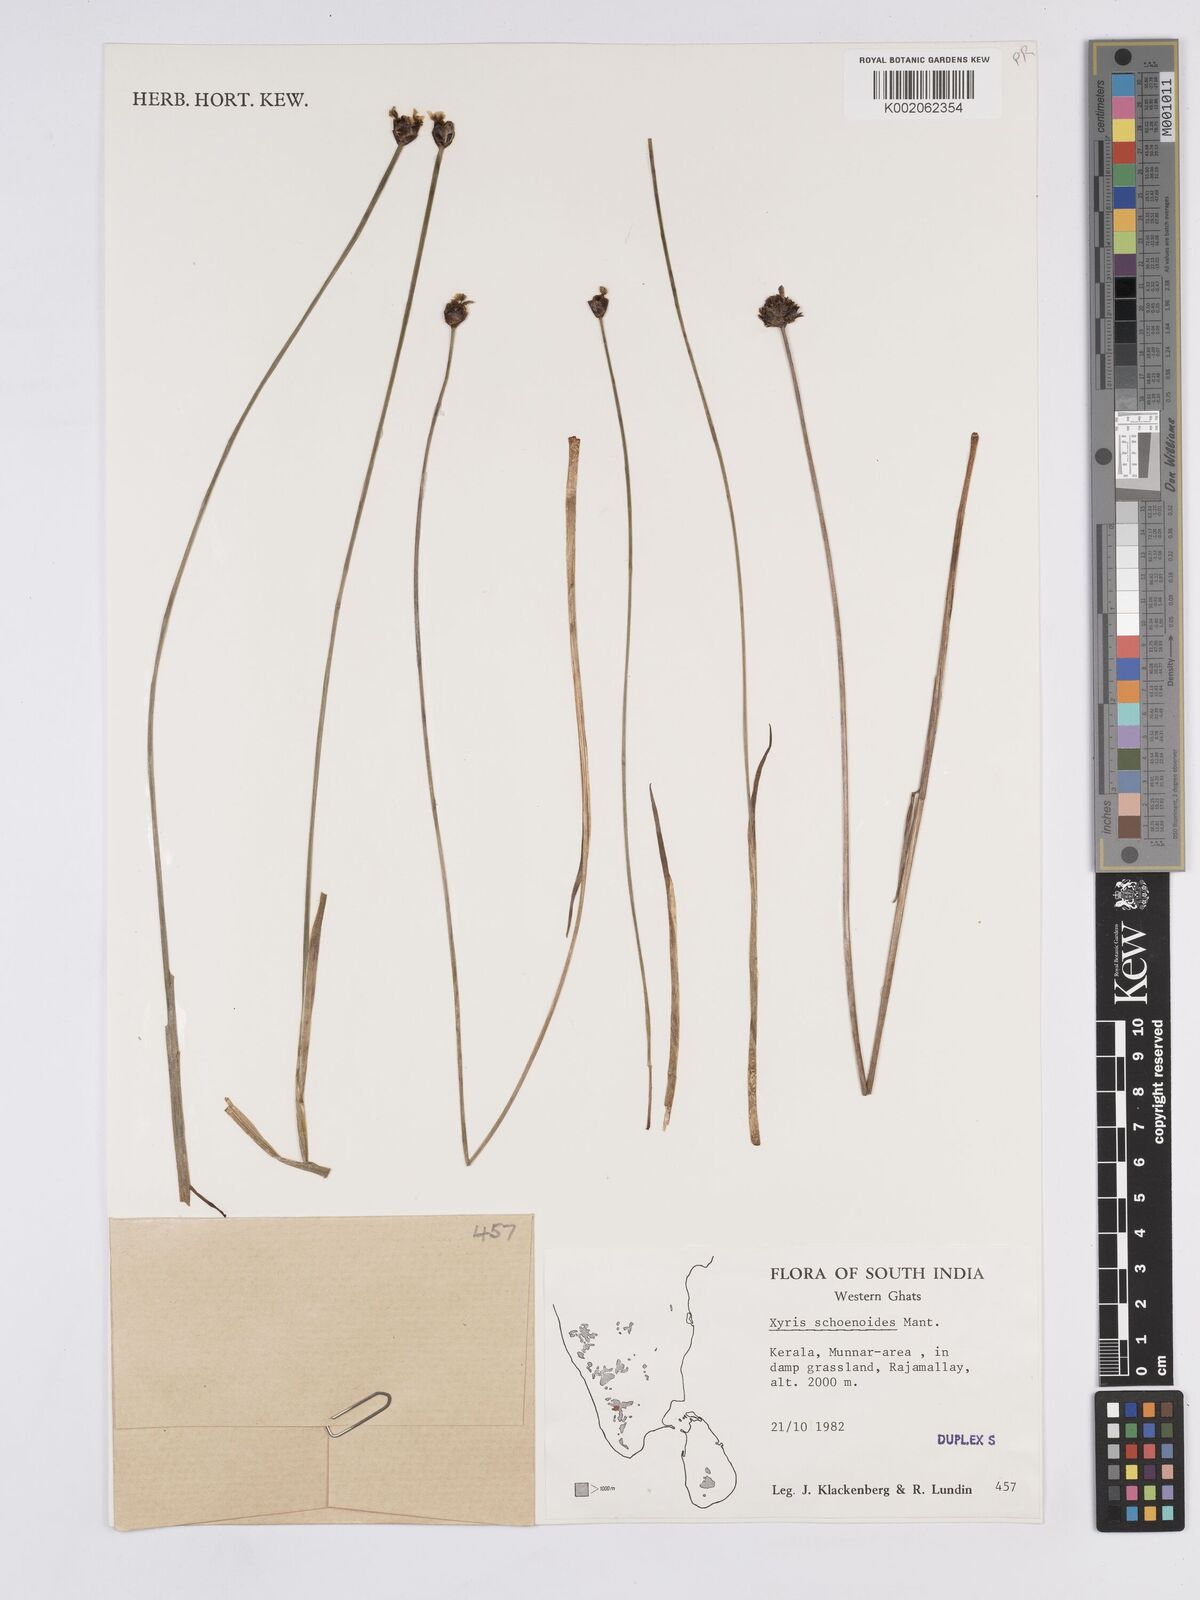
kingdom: Plantae
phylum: Tracheophyta
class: Liliopsida
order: Poales
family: Xyridaceae
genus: Xyris
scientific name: Xyris capensis
